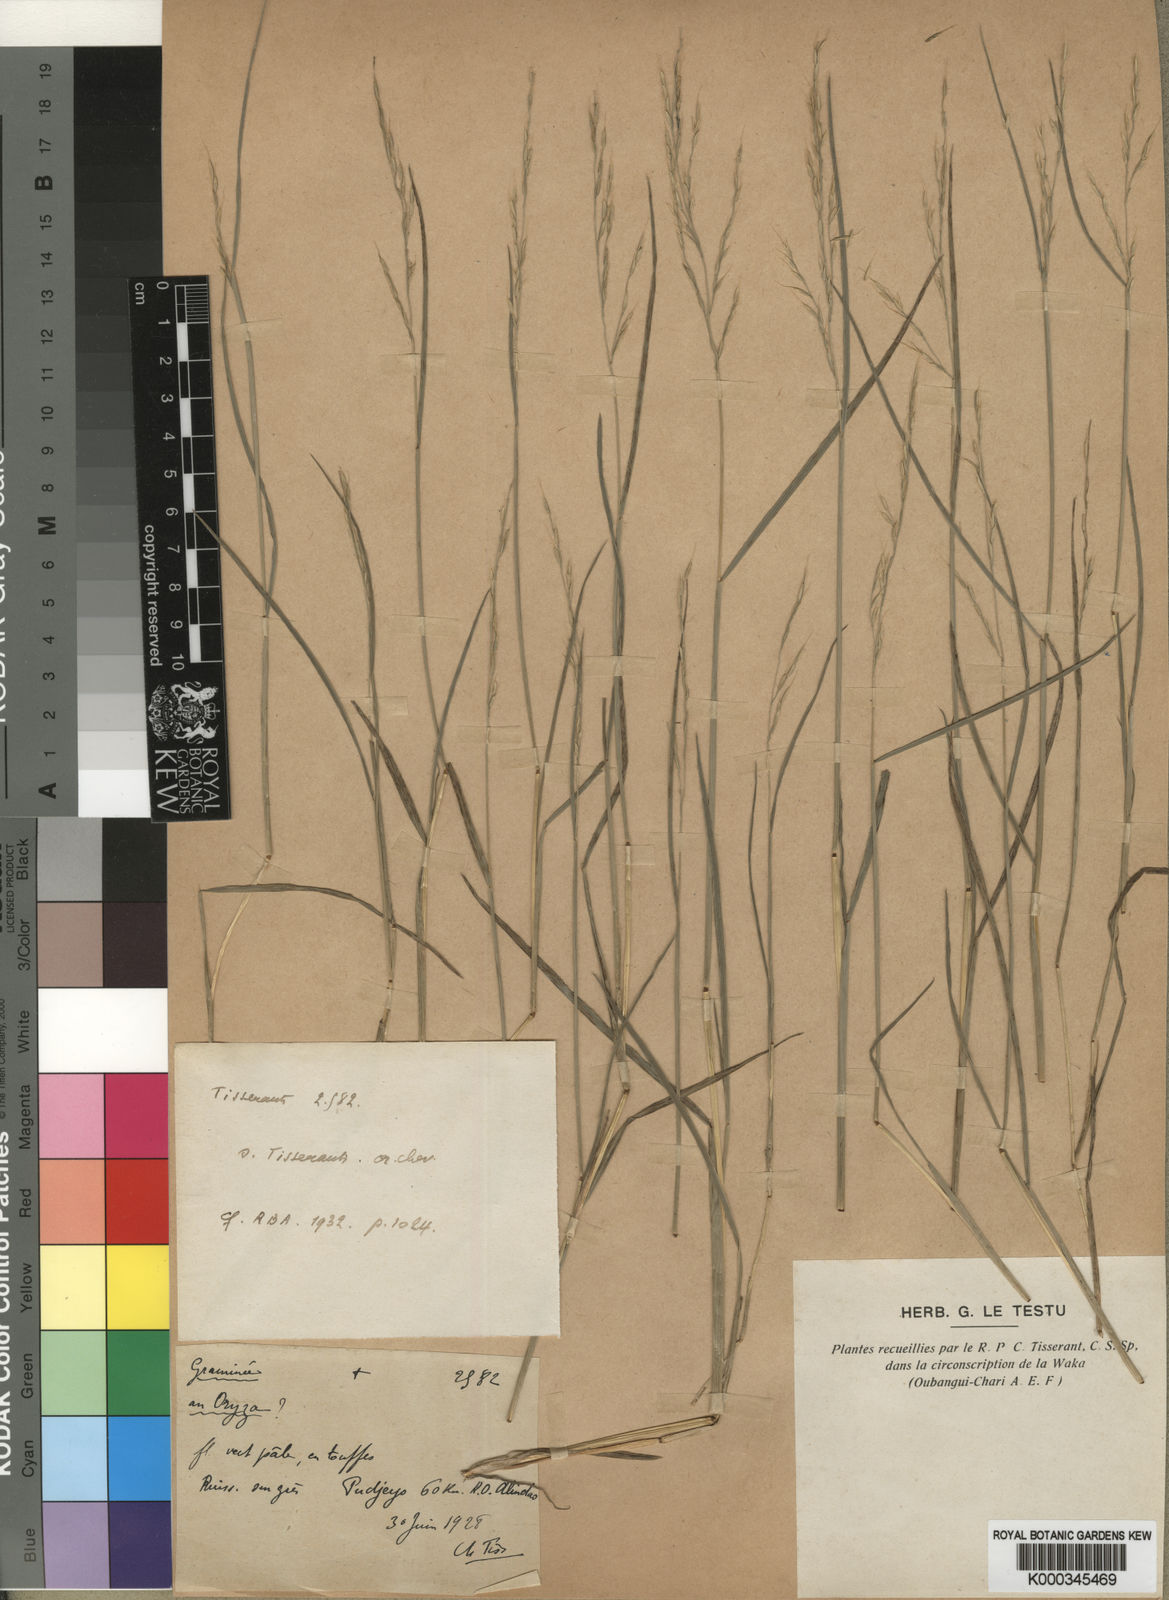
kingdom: Plantae
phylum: Tracheophyta
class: Liliopsida
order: Poales
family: Poaceae
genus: Leersia
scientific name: Leersia tisserantii
